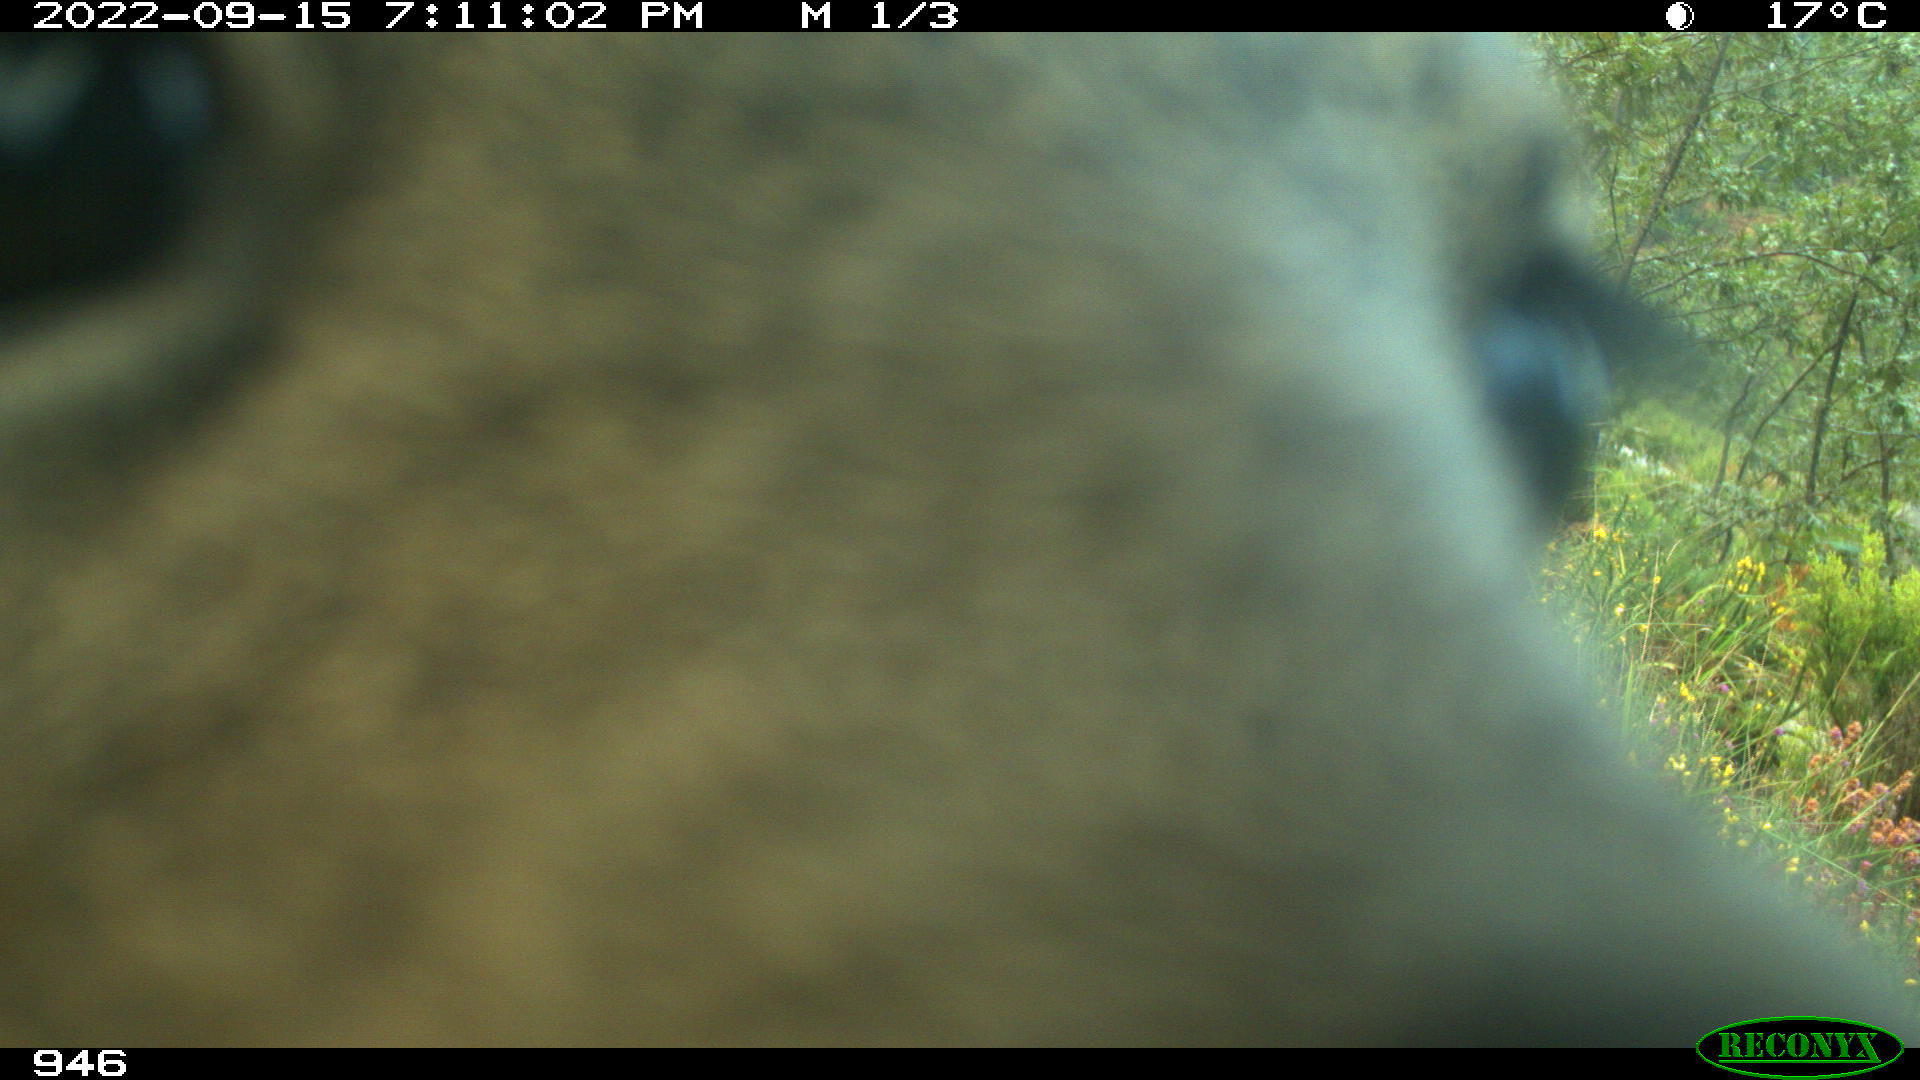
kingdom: Animalia
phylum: Chordata
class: Mammalia
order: Artiodactyla
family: Cervidae
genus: Capreolus
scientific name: Capreolus capreolus
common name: Western roe deer
